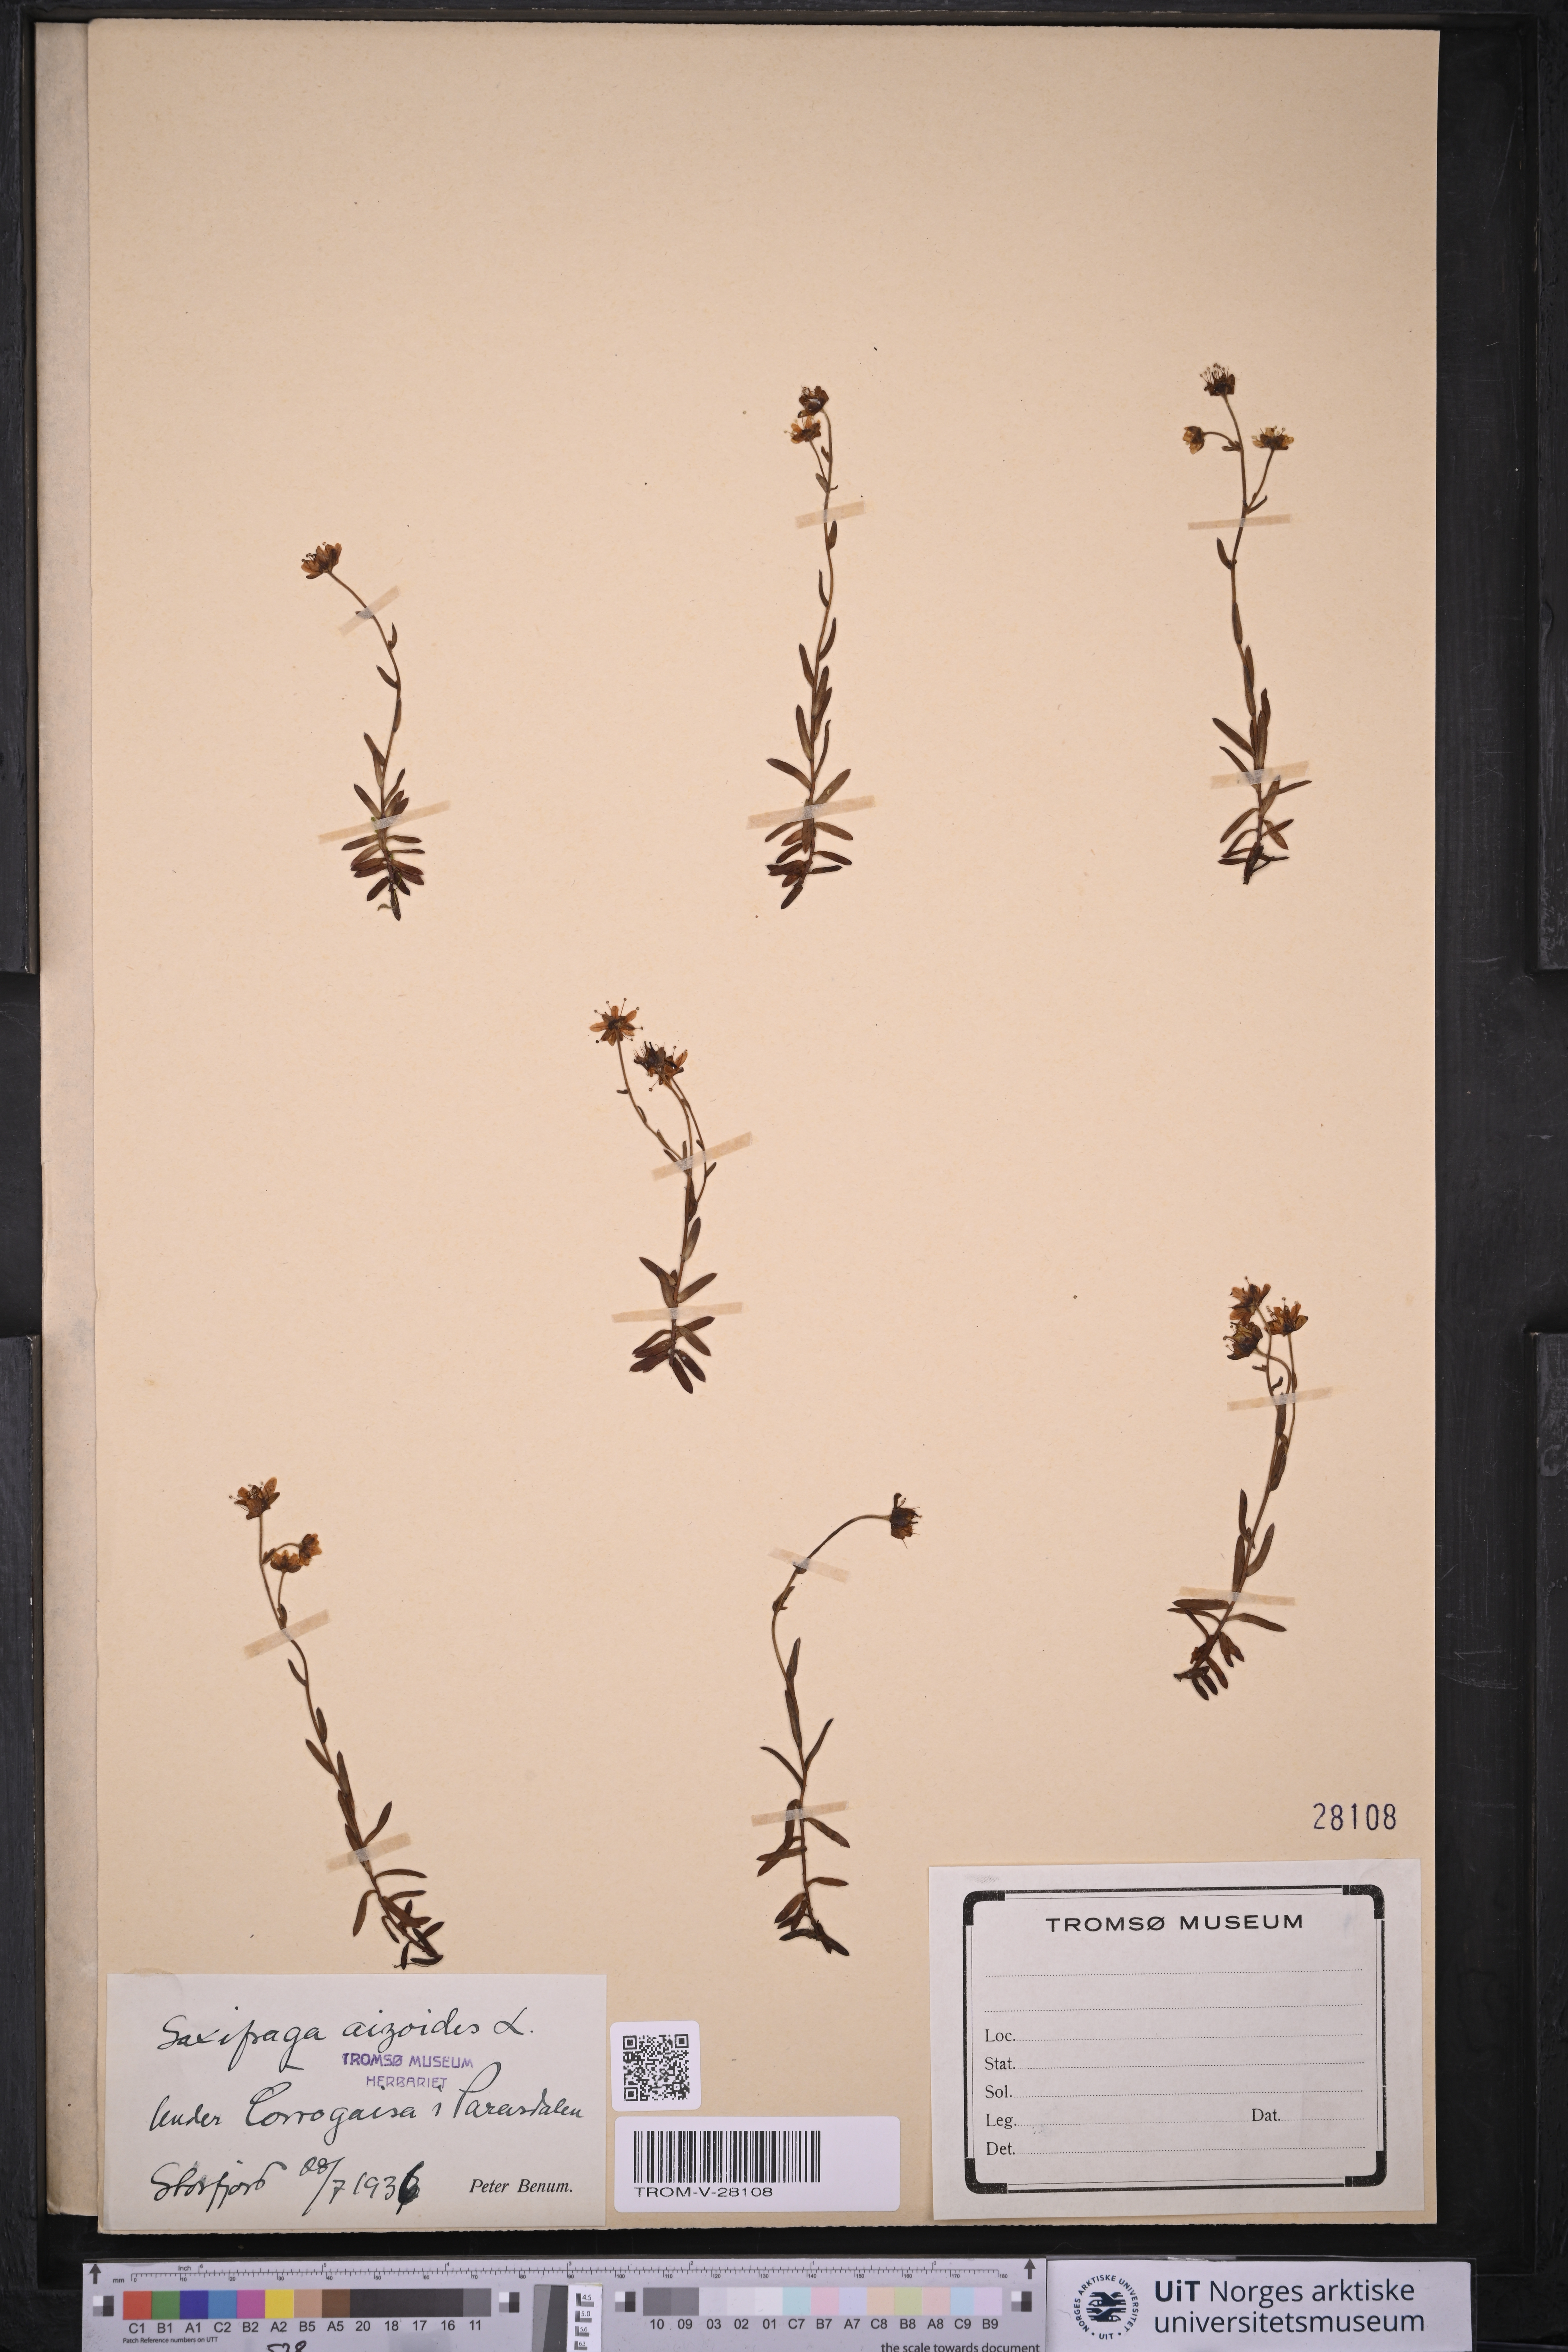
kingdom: Plantae
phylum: Tracheophyta
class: Magnoliopsida
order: Saxifragales
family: Saxifragaceae
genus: Saxifraga
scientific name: Saxifraga aizoides
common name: Yellow mountain saxifrage
